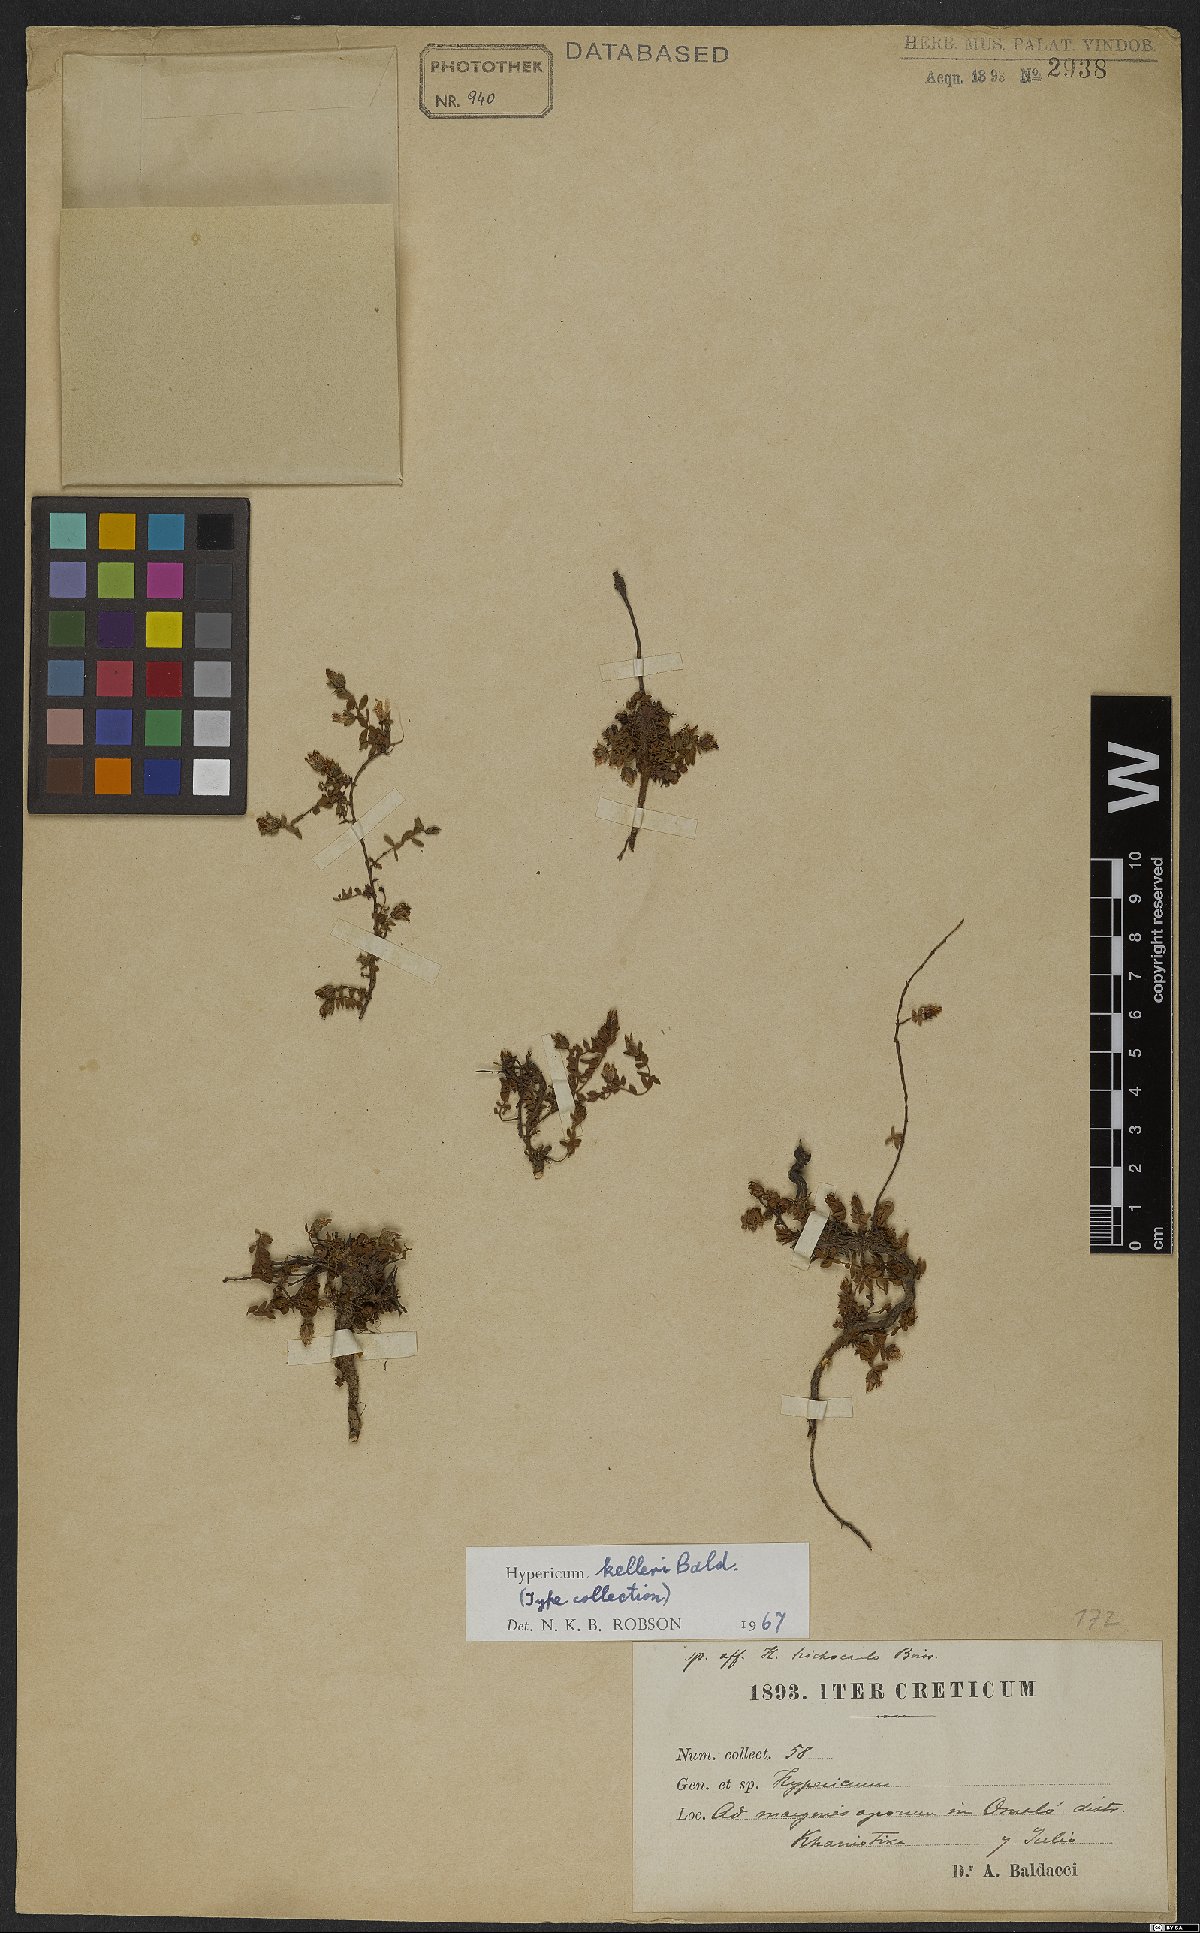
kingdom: Plantae
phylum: Tracheophyta
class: Magnoliopsida
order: Malpighiales
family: Hypericaceae
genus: Hypericum
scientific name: Hypericum kelleri
